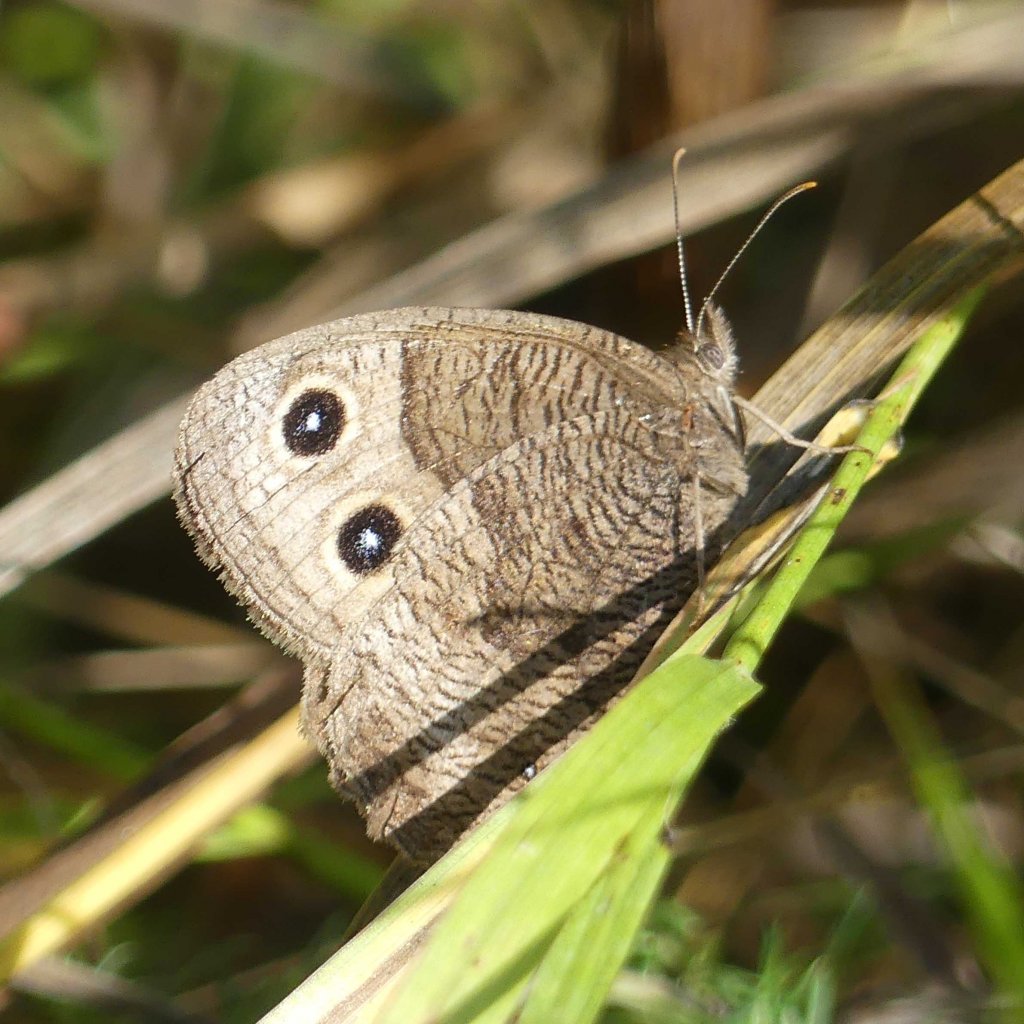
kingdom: Animalia
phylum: Arthropoda
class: Insecta
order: Lepidoptera
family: Nymphalidae
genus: Cercyonis
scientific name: Cercyonis pegala
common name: Common Wood-Nymph
